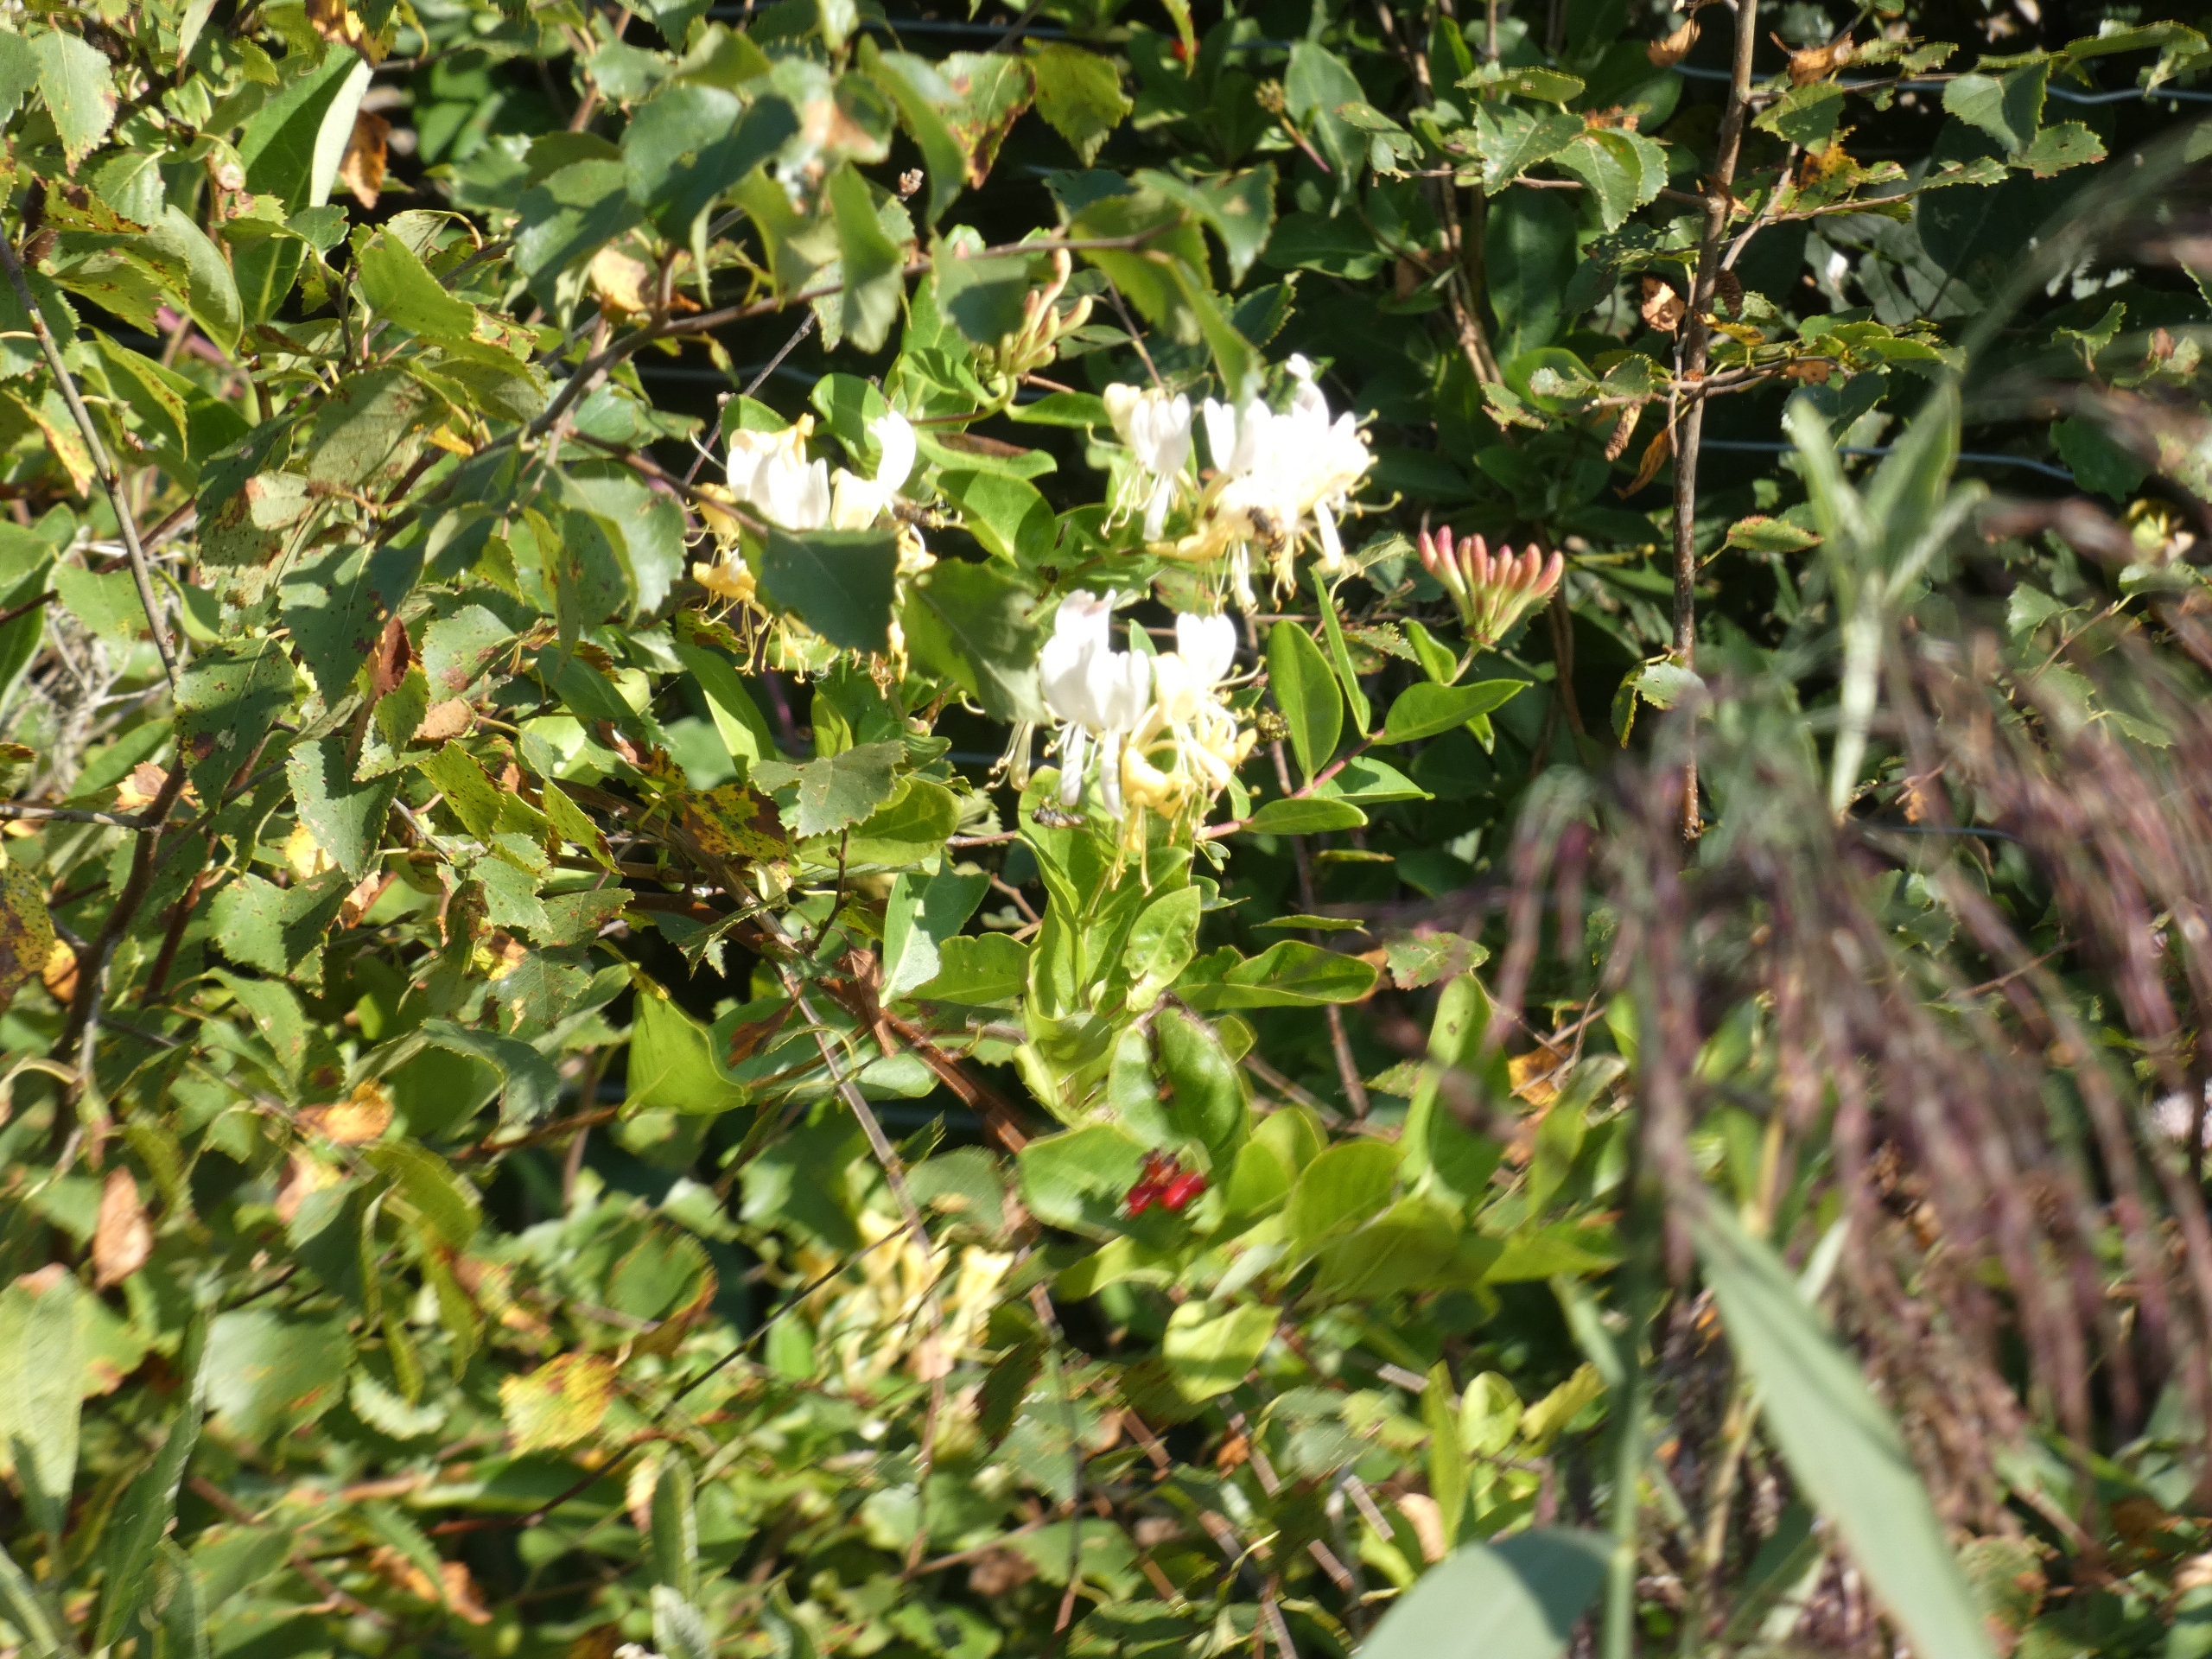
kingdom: Plantae
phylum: Tracheophyta
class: Magnoliopsida
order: Dipsacales
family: Caprifoliaceae
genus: Lonicera
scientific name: Lonicera periclymenum
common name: Almindelig gedeblad
